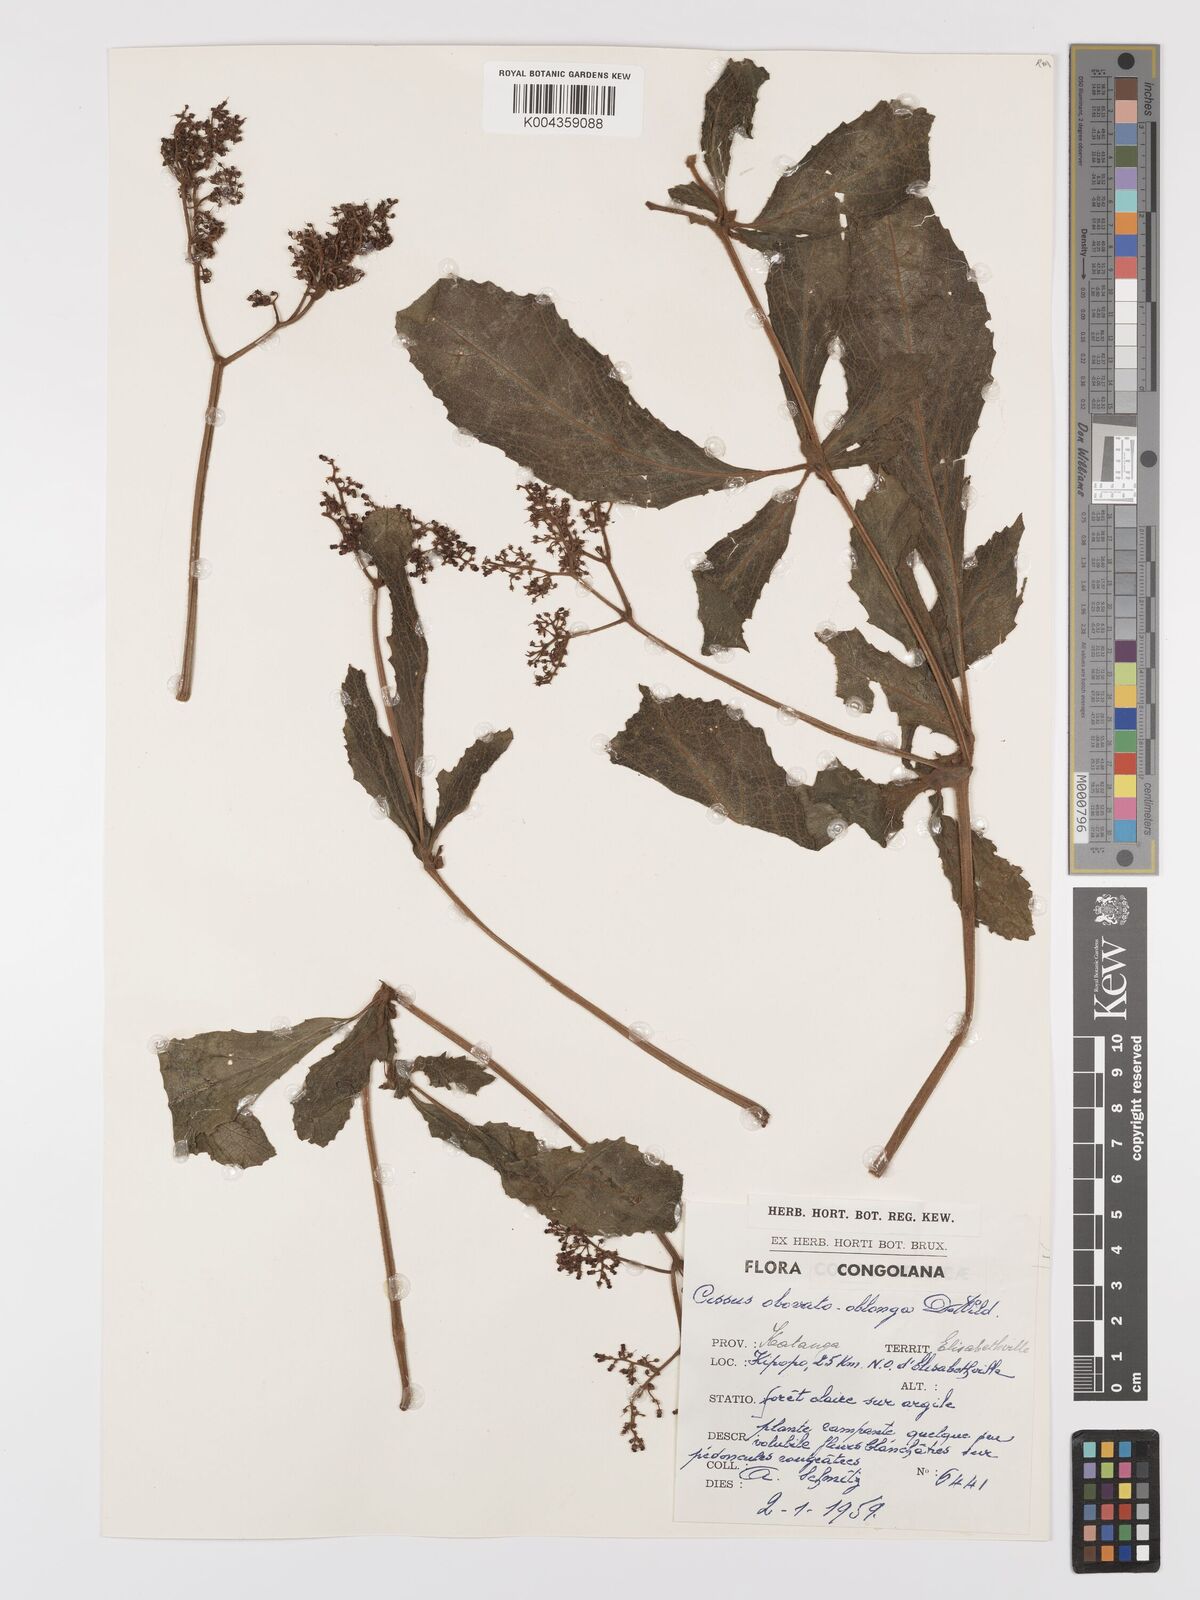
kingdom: Plantae
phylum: Tracheophyta
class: Magnoliopsida
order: Vitales
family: Vitaceae
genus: Cyphostemma
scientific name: Cyphostemma obovato-oblongum
